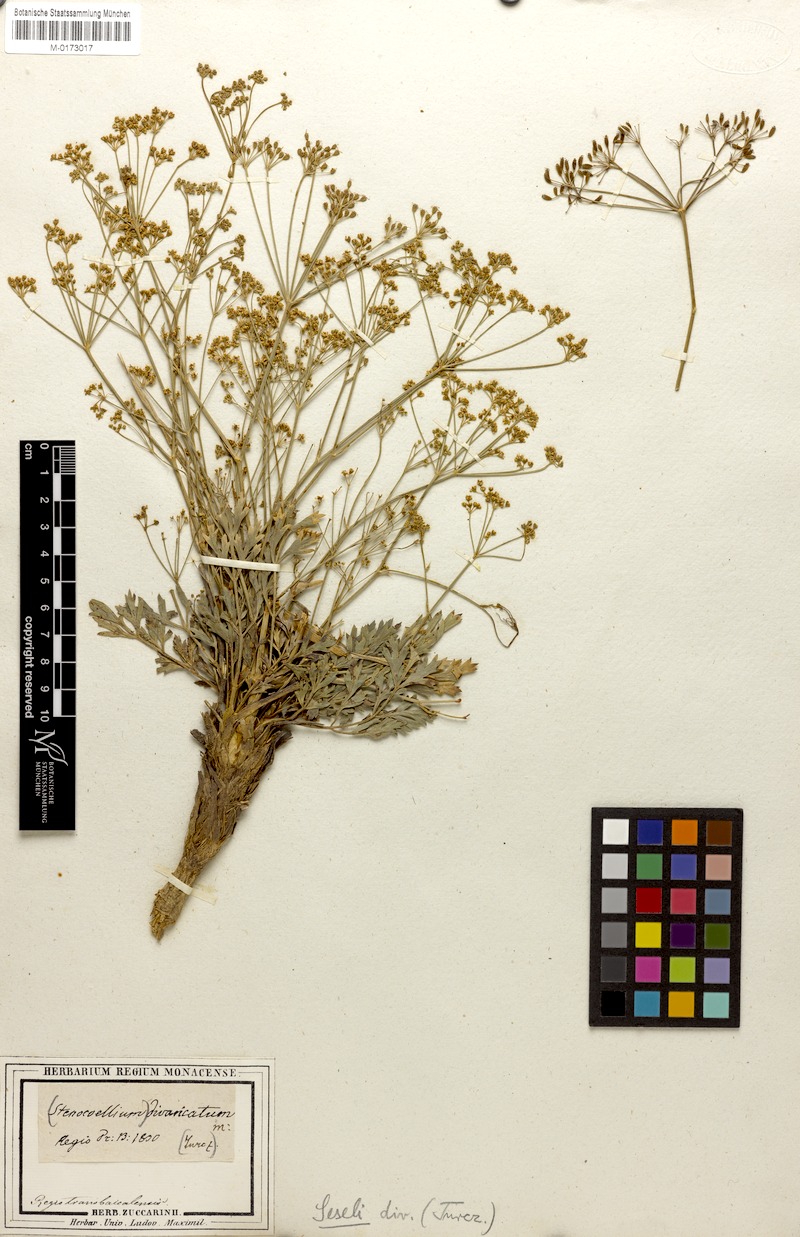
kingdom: Plantae
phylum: Tracheophyta
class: Magnoliopsida
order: Apiales
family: Apiaceae
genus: Saposhnikovia
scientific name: Saposhnikovia divaricata
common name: Siler
